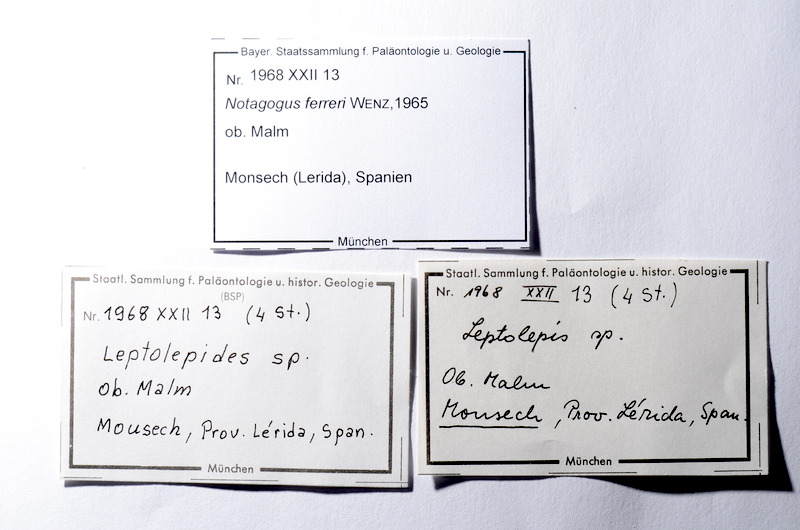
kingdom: Animalia
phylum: Chordata
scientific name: Chordata
